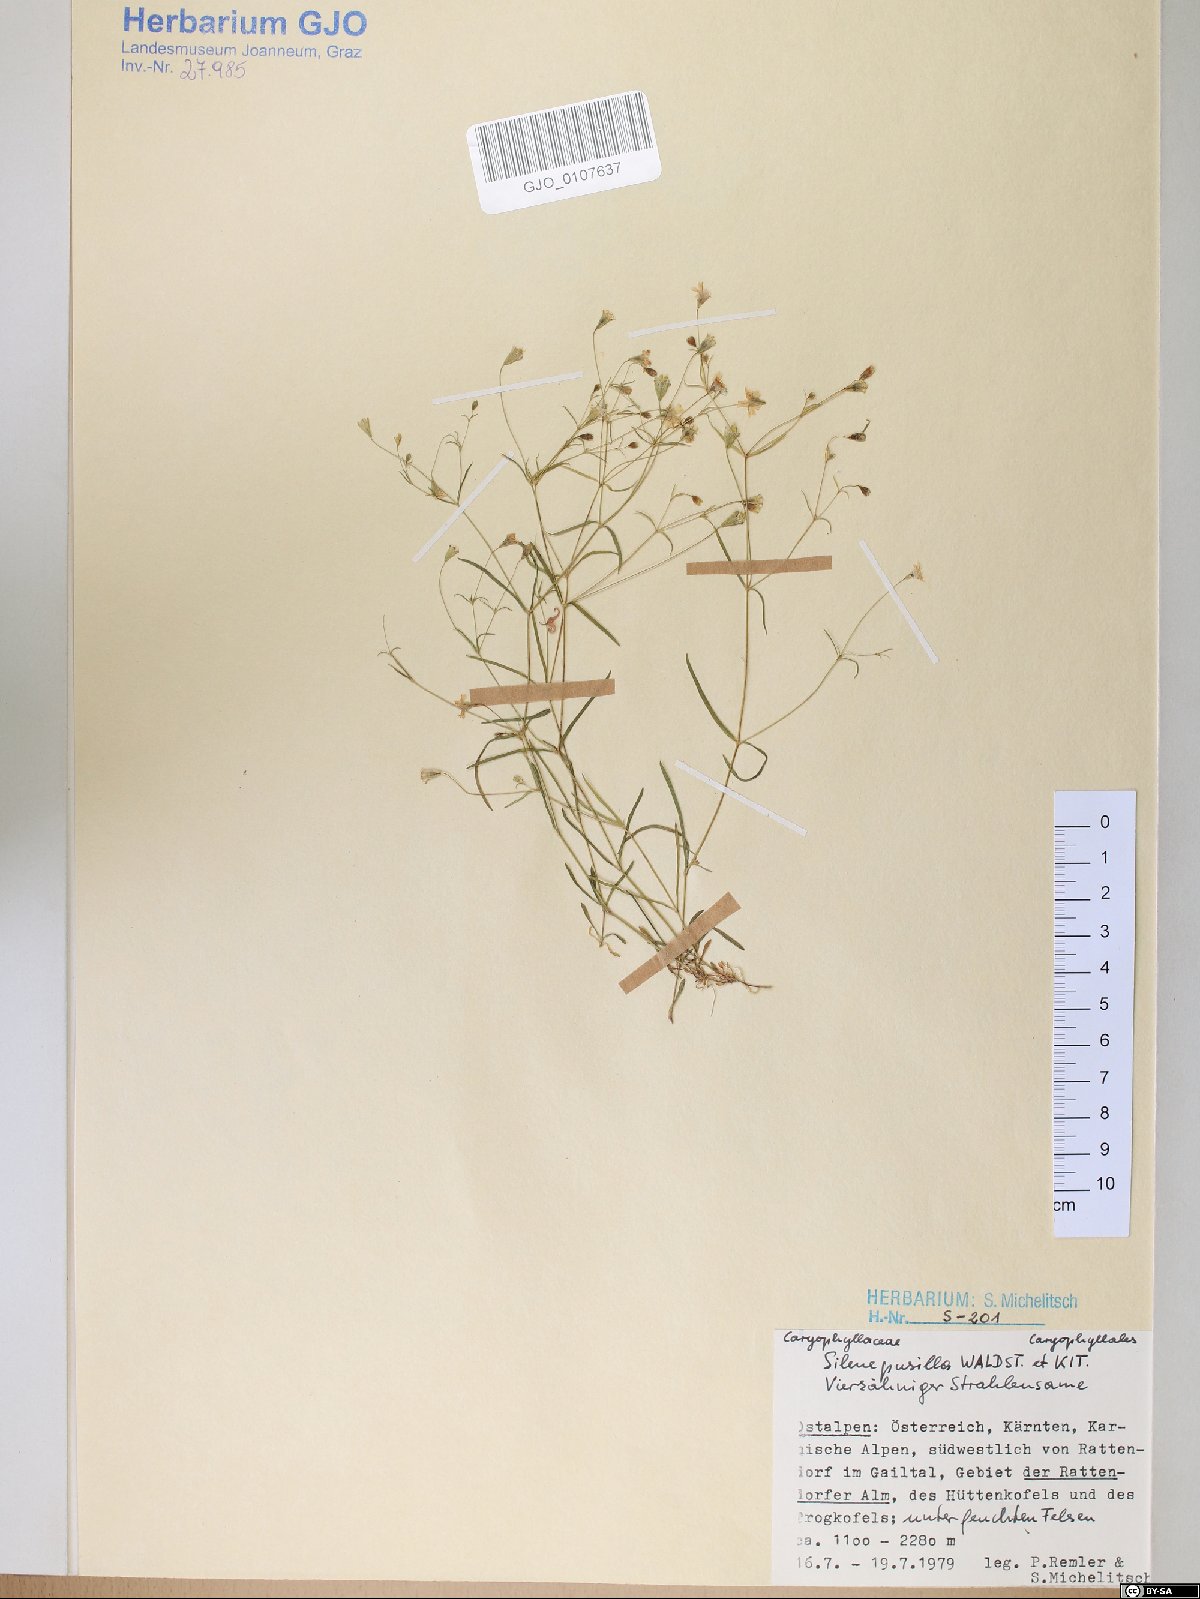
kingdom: Plantae
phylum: Tracheophyta
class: Magnoliopsida
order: Caryophyllales
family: Caryophyllaceae
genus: Heliosperma
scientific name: Heliosperma pusillum
